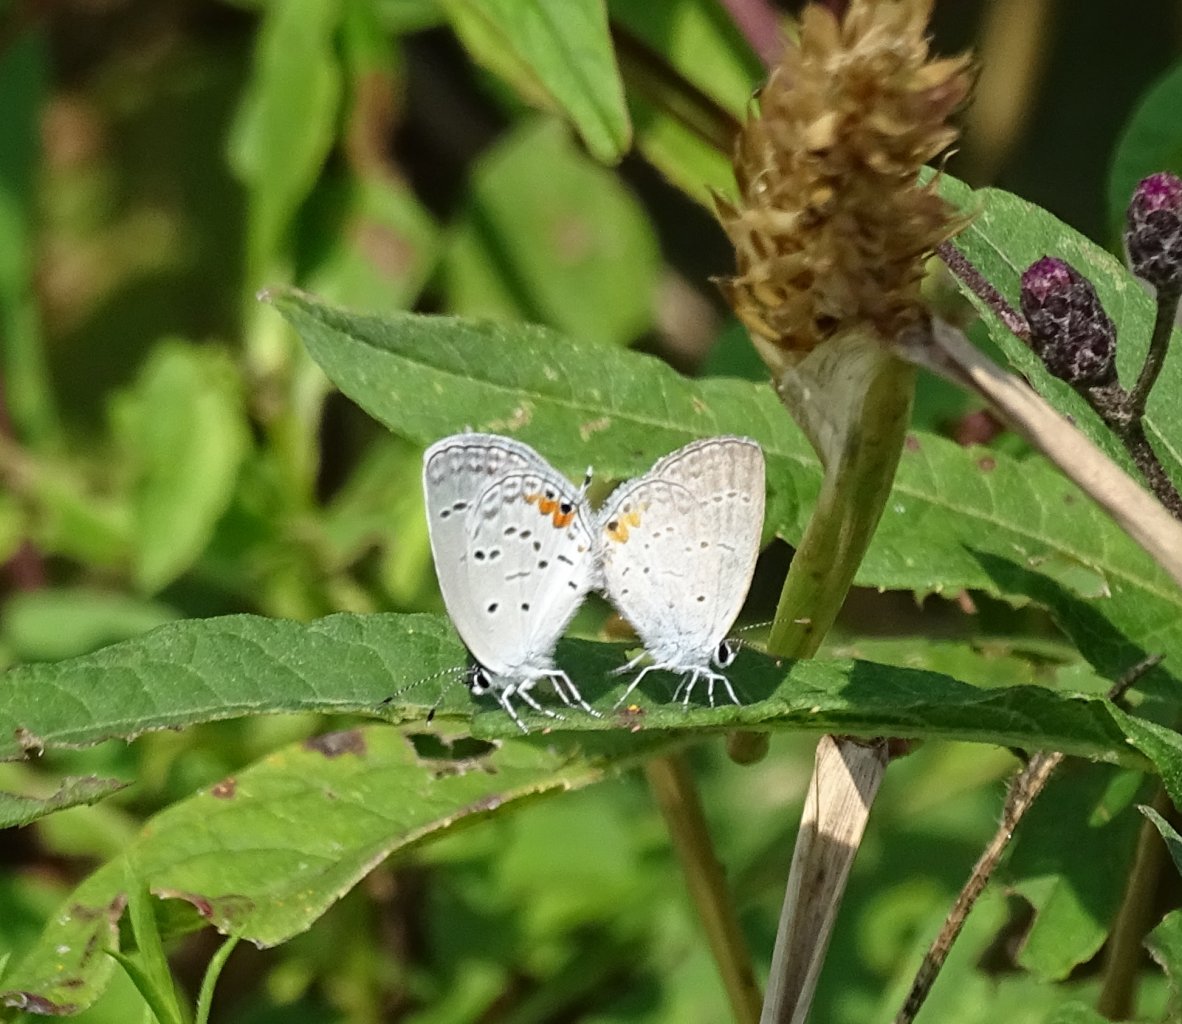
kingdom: Animalia
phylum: Arthropoda
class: Insecta
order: Lepidoptera
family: Lycaenidae
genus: Elkalyce
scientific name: Elkalyce comyntas
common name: Eastern Tailed-Blue
